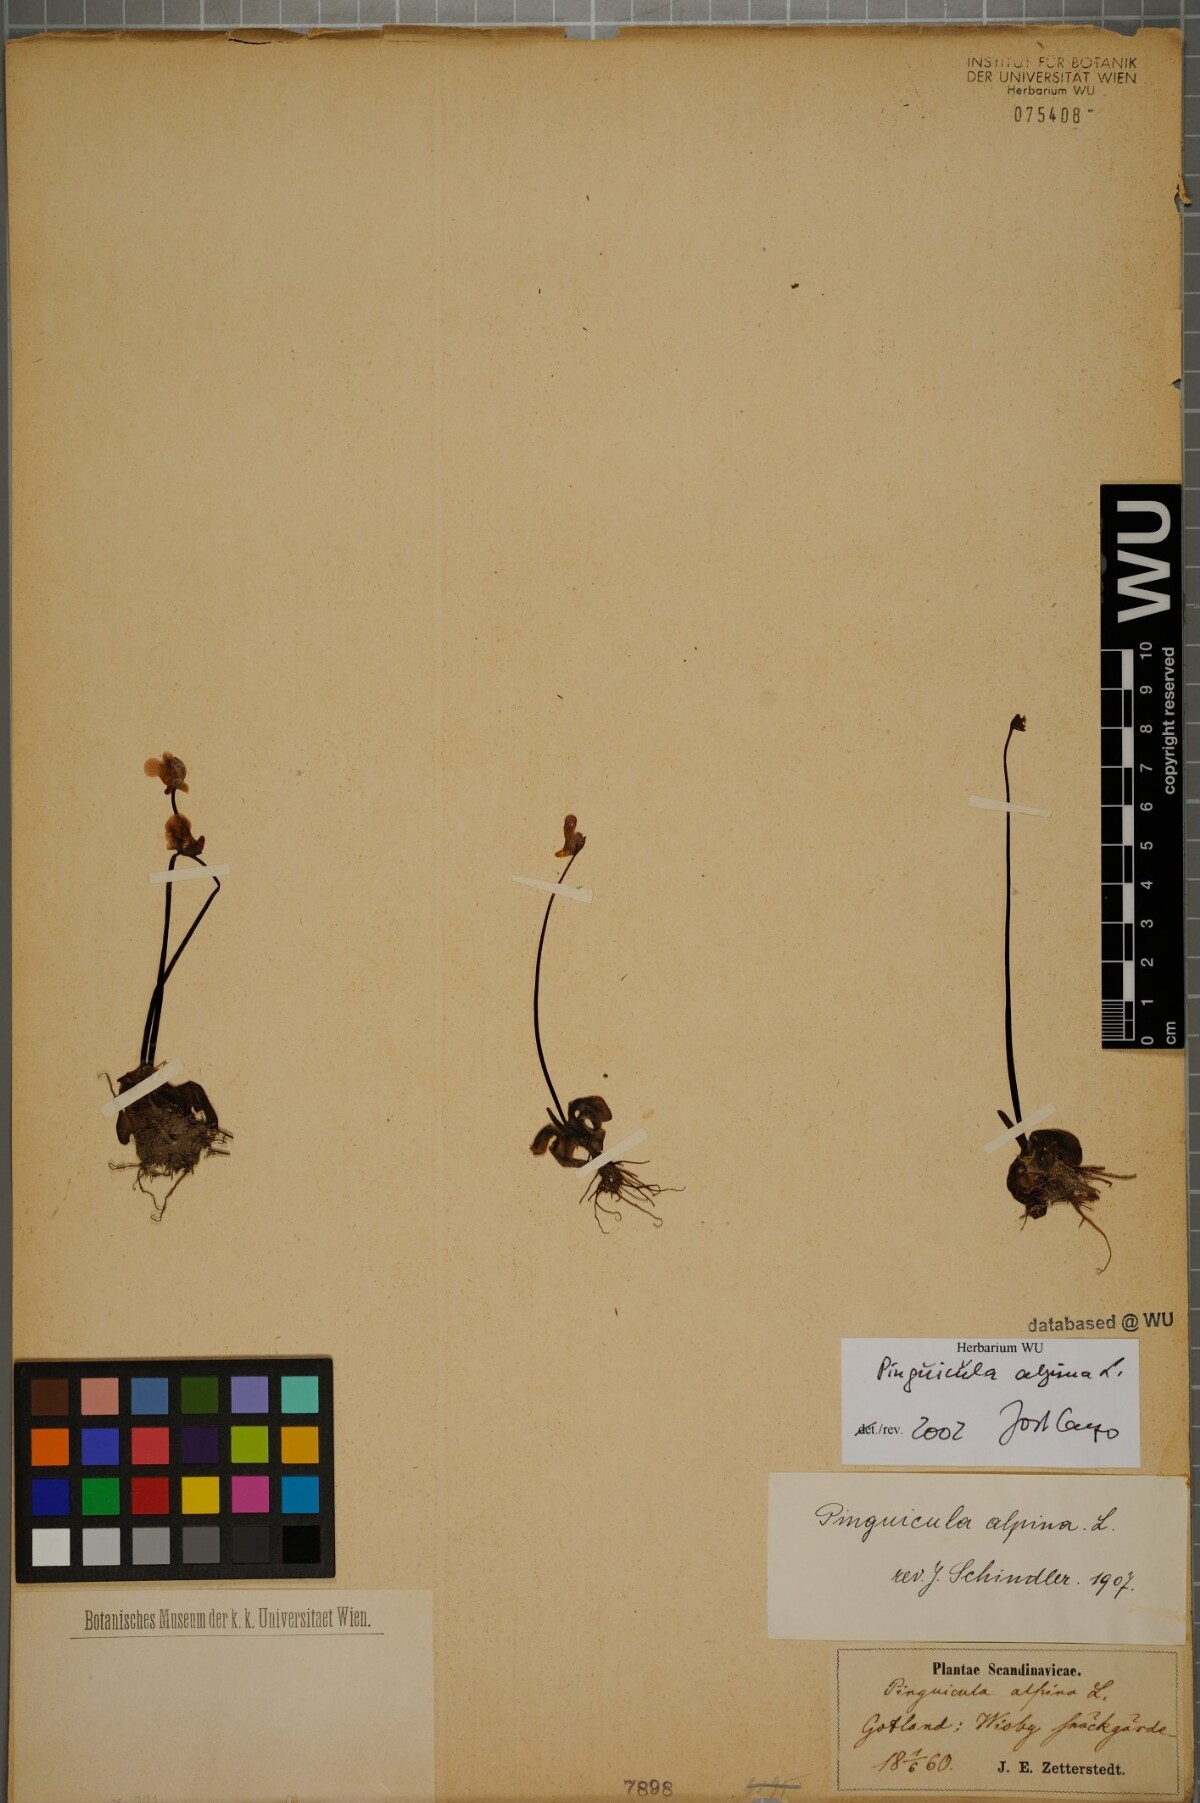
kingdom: Plantae
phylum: Tracheophyta
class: Magnoliopsida
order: Lamiales
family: Lentibulariaceae
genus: Pinguicula
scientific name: Pinguicula alpina
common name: Alpine butterwort
